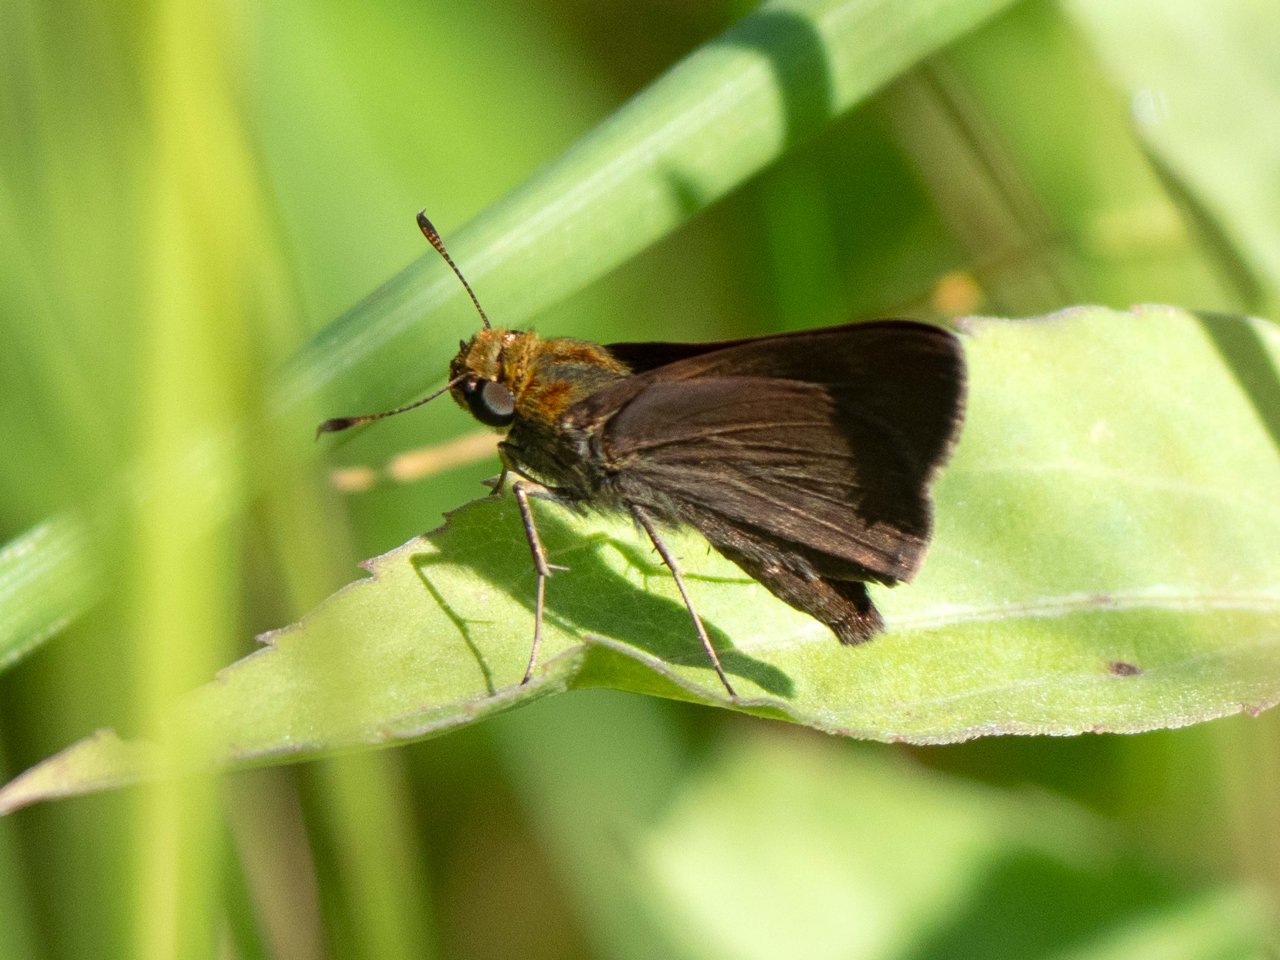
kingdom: Animalia
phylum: Arthropoda
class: Insecta
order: Lepidoptera
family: Hesperiidae
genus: Euphyes
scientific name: Euphyes vestris
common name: Dun Skipper
